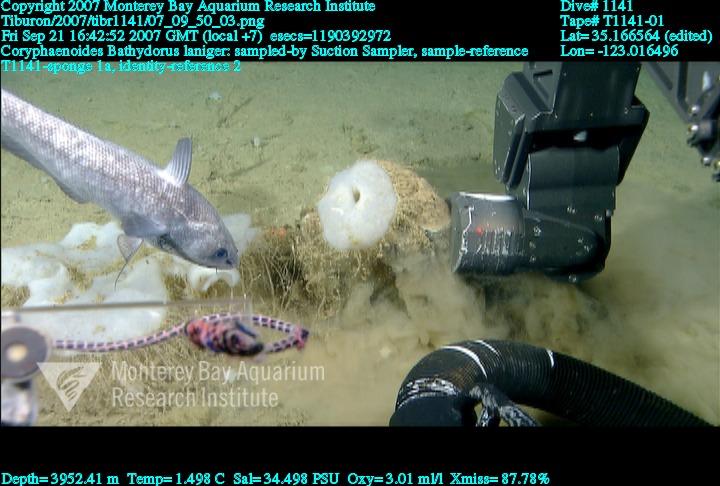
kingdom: Animalia
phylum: Porifera
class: Hexactinellida
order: Lyssacinosida
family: Rossellidae
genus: Bathydorus
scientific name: Bathydorus laniger
